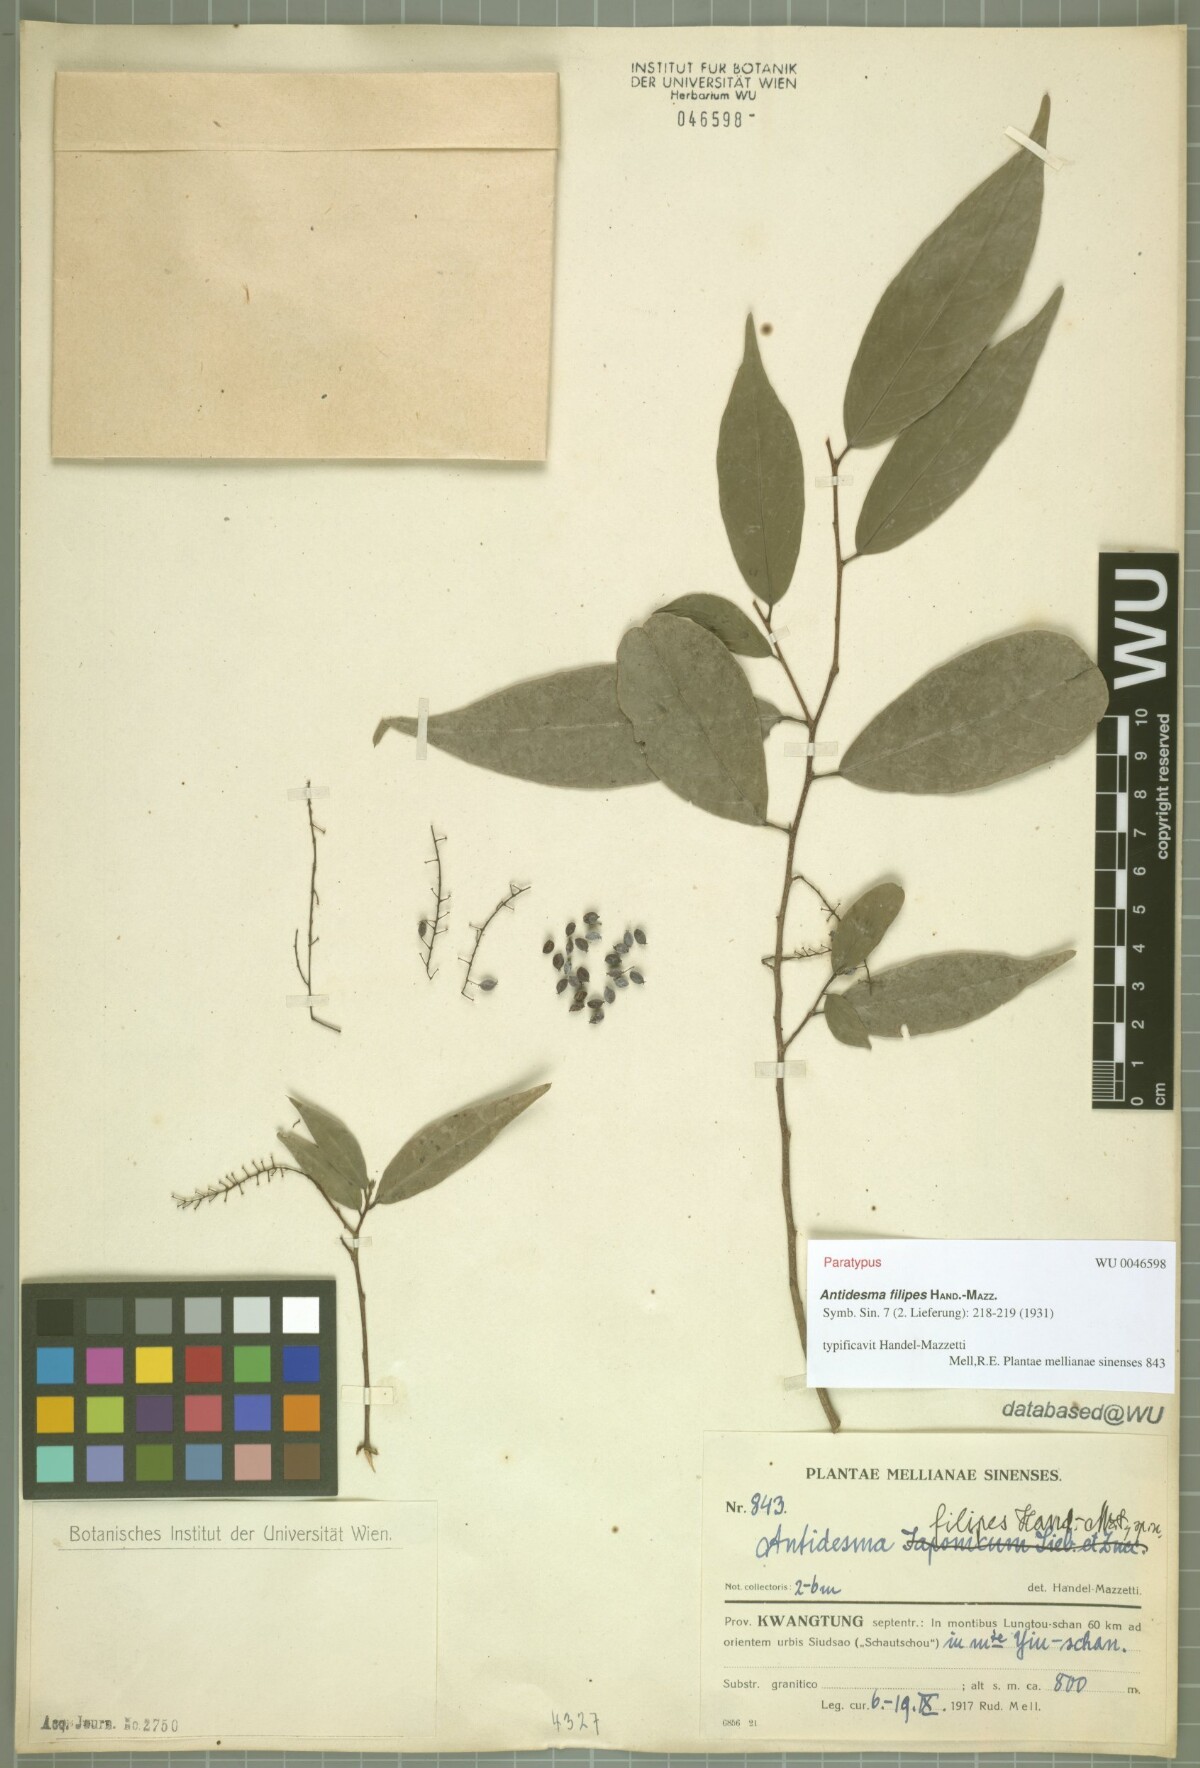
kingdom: Plantae
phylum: Tracheophyta
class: Magnoliopsida
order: Malpighiales
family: Phyllanthaceae
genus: Antidesma
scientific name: Antidesma japonicum
